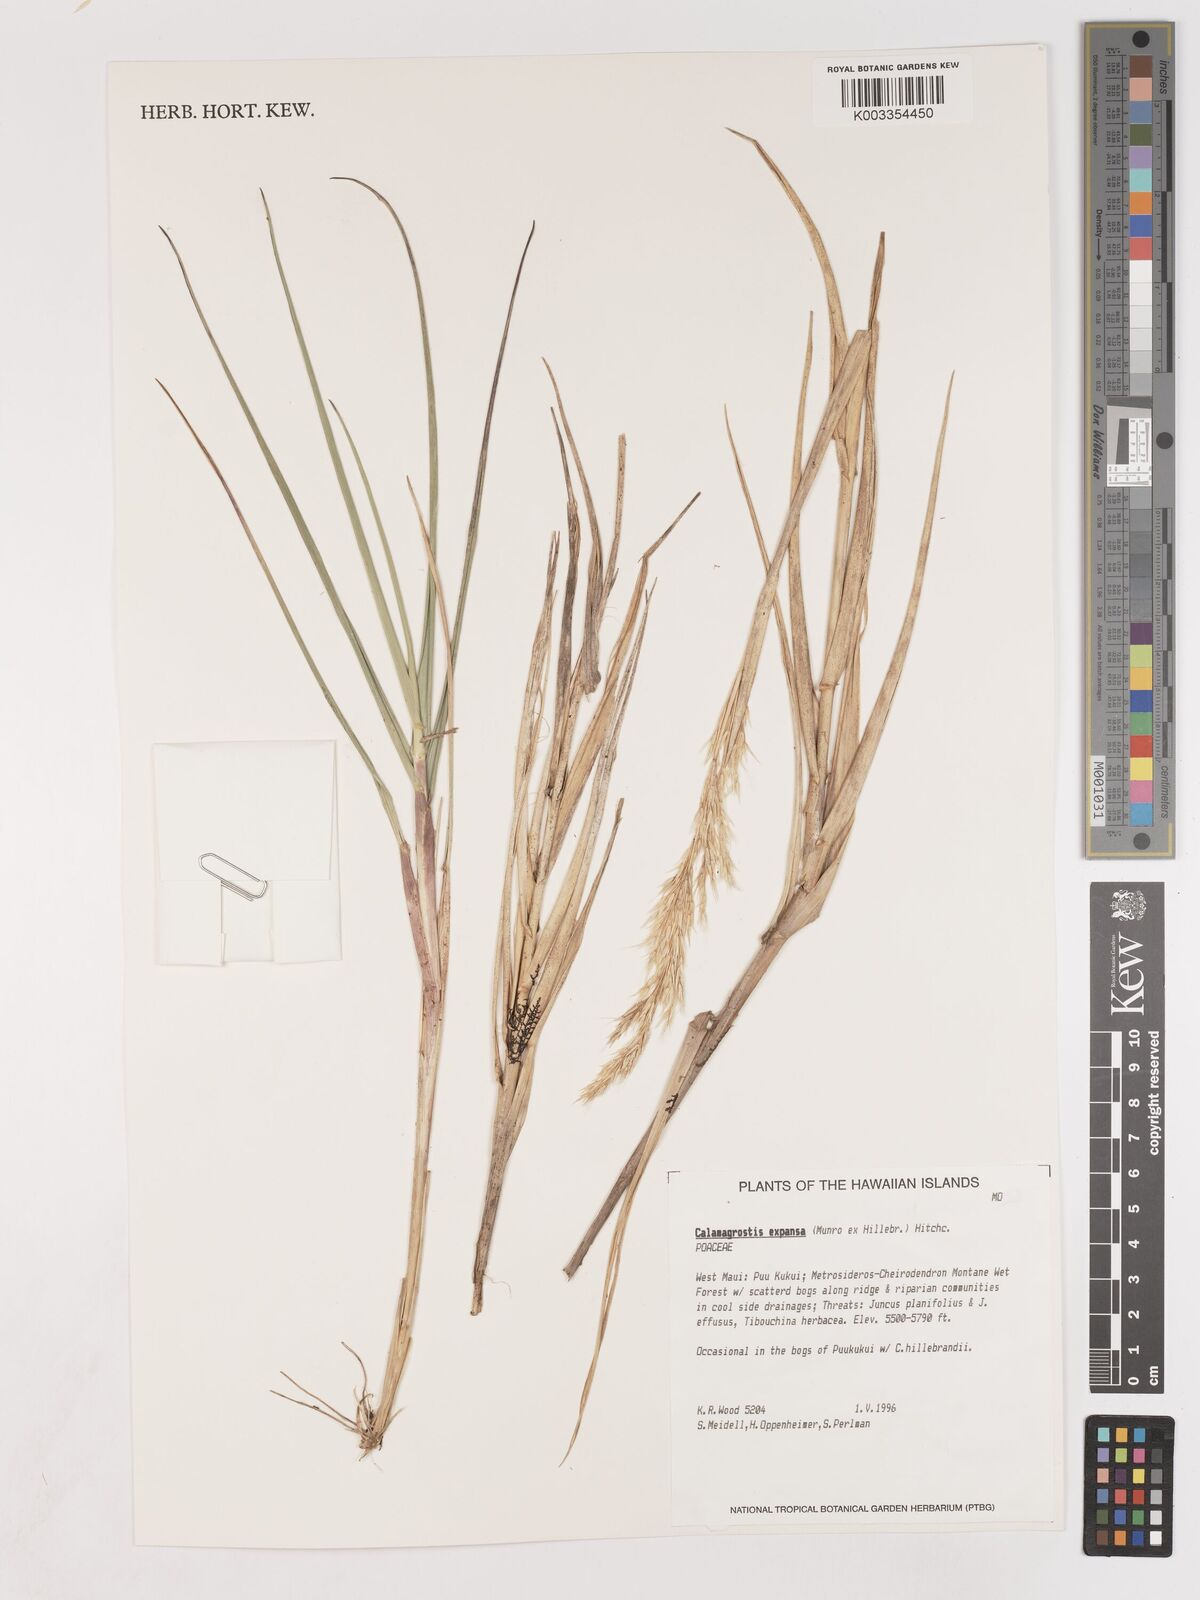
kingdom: Plantae
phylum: Tracheophyta
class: Liliopsida
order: Poales
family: Poaceae
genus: Calamagrostis
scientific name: Calamagrostis expansa
